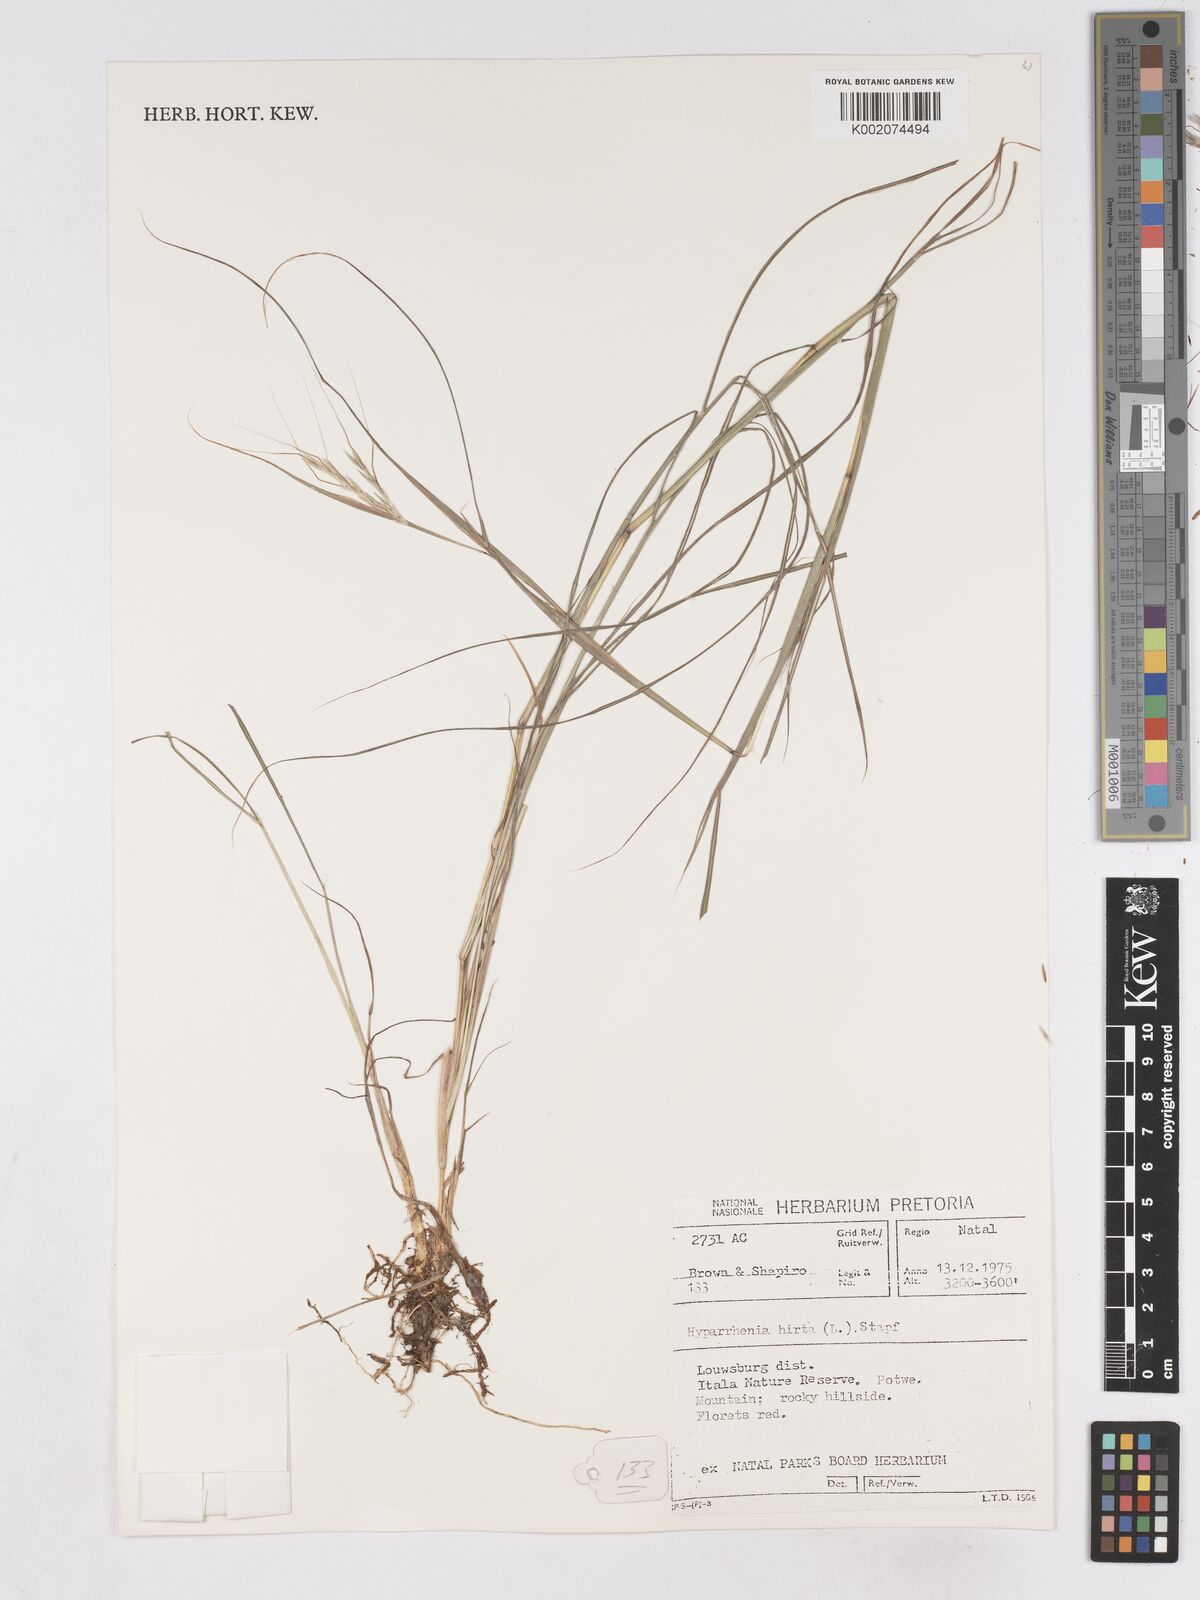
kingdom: Plantae
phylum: Tracheophyta
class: Liliopsida
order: Poales
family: Poaceae
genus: Hyparrhenia
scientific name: Hyparrhenia hirta
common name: Thatching grass
